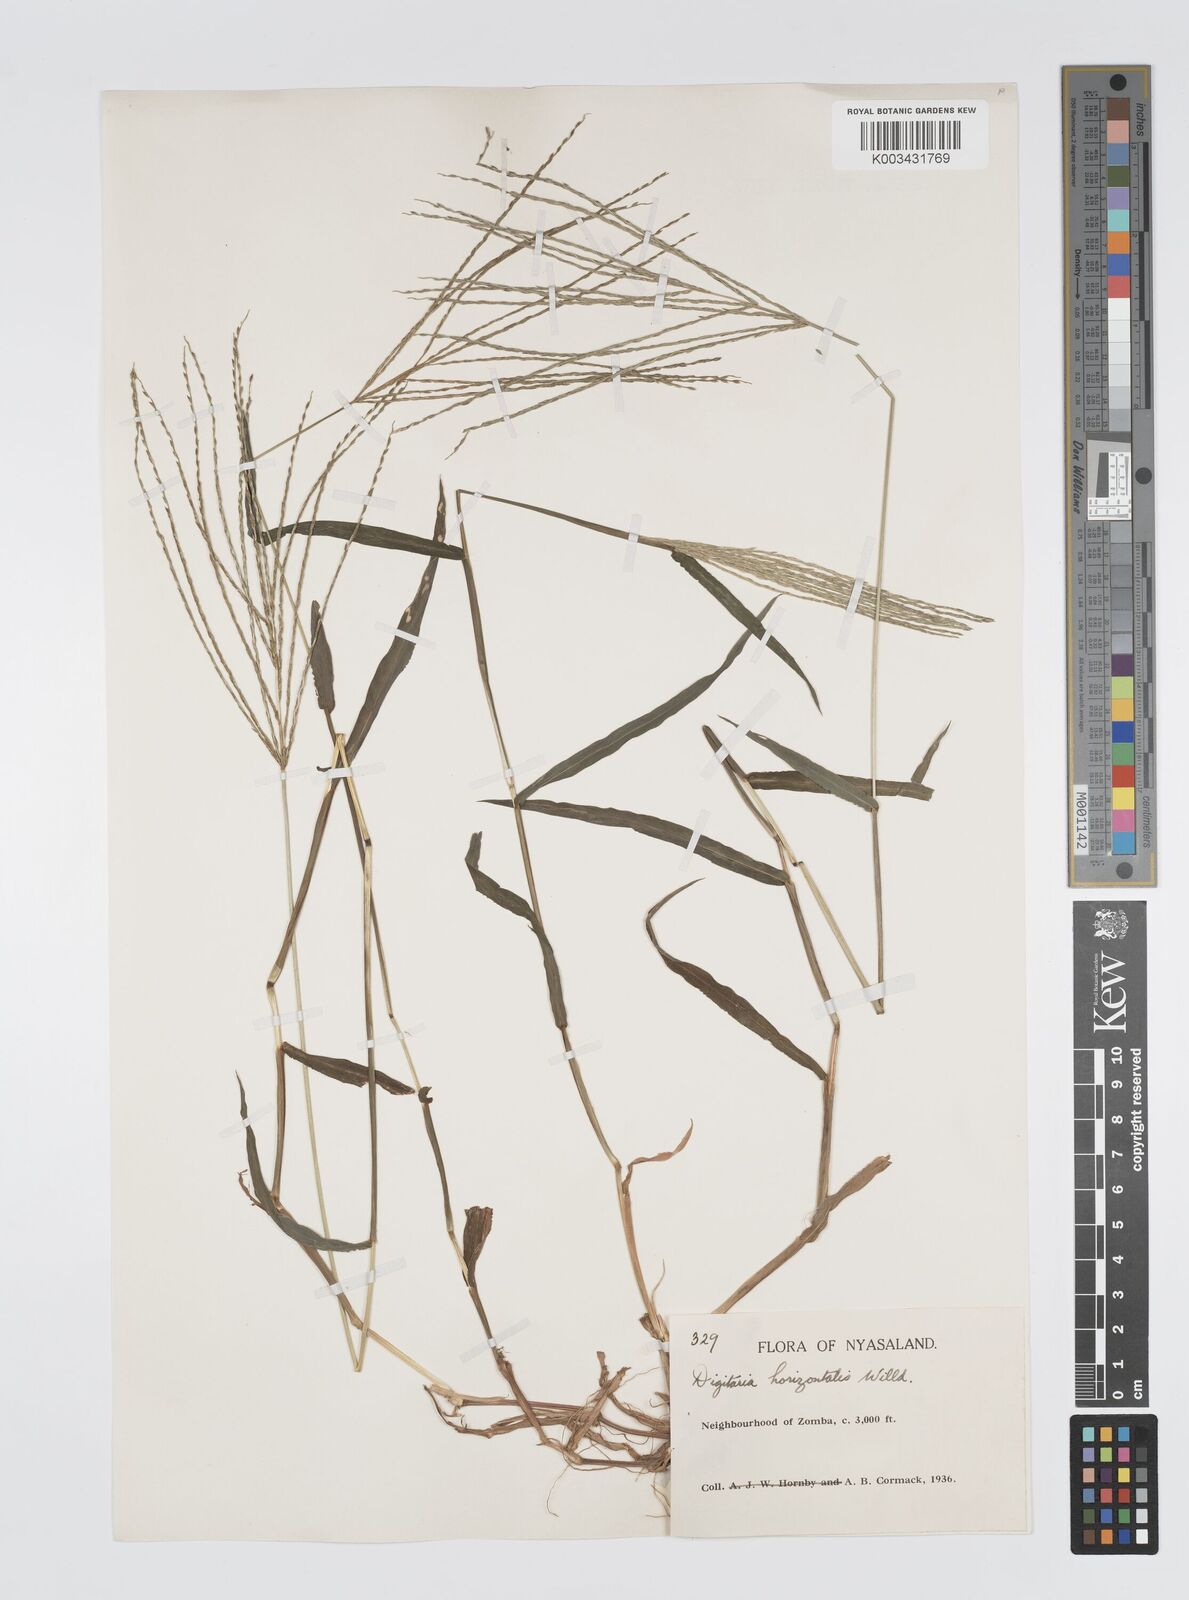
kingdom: Plantae
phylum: Tracheophyta
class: Liliopsida
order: Poales
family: Poaceae
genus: Digitaria
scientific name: Digitaria nuda
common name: Naked crabgrass
